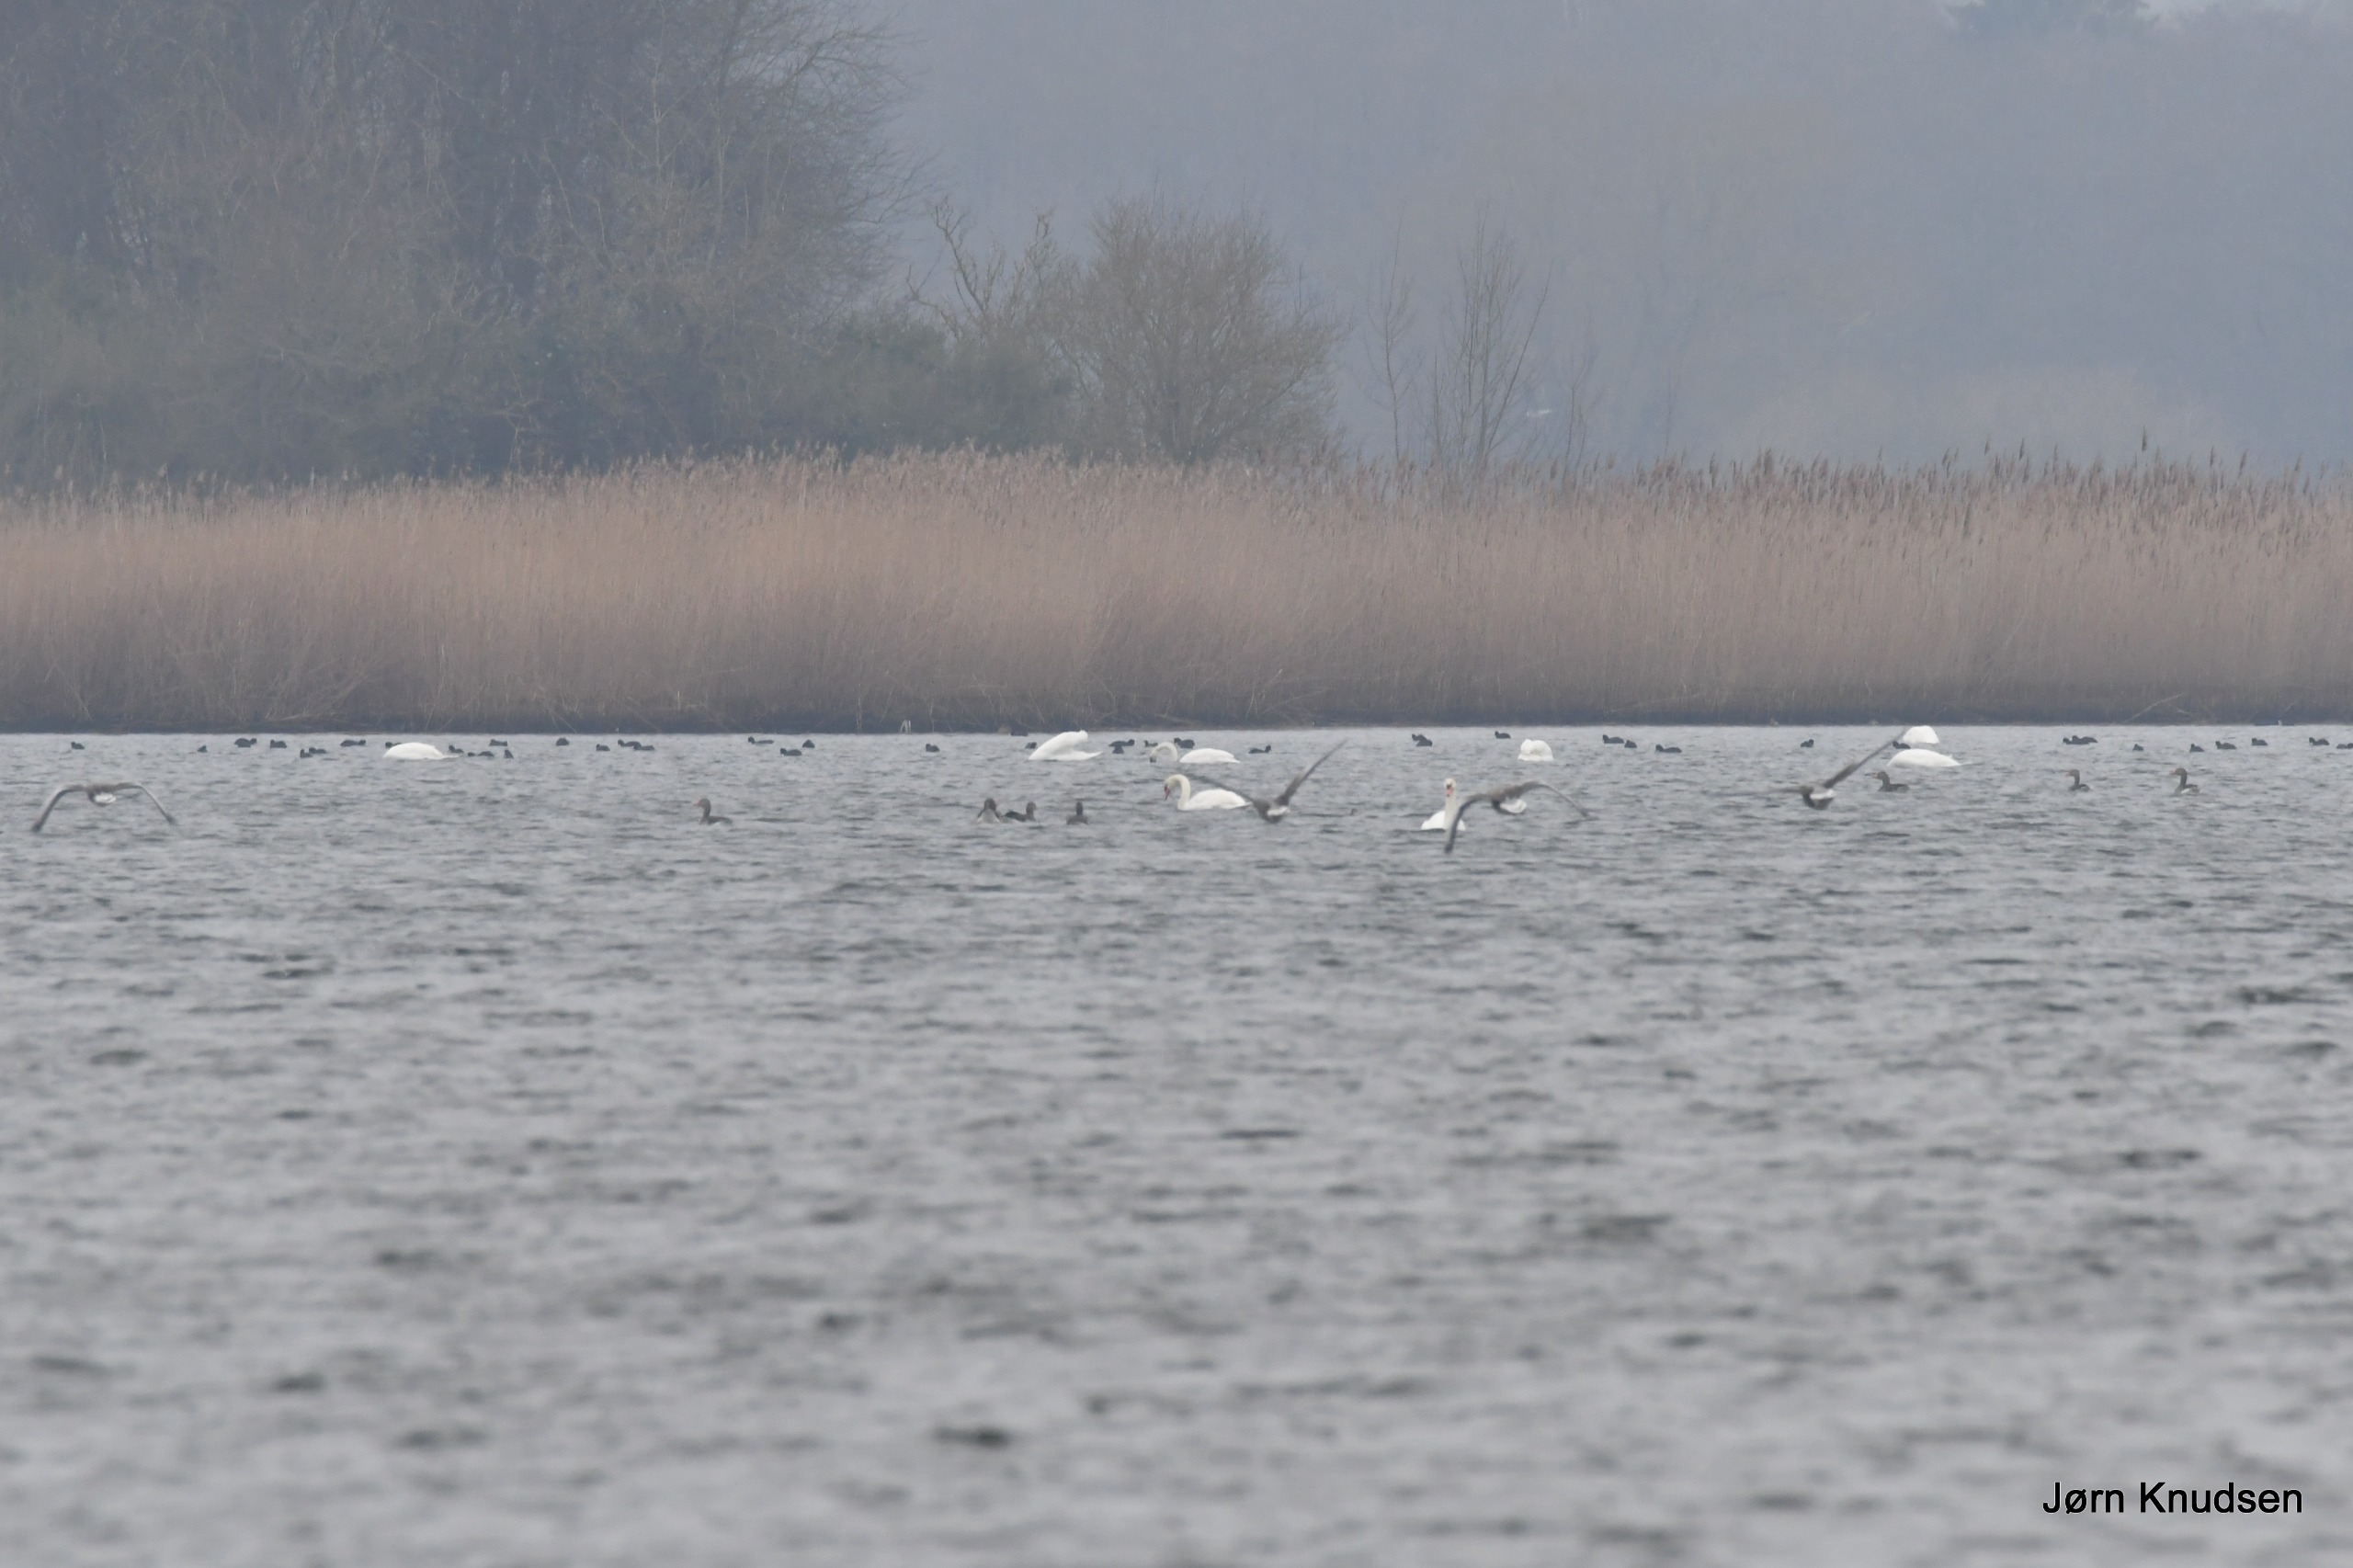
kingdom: Animalia
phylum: Chordata
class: Aves
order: Anseriformes
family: Anatidae
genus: Cygnus
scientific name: Cygnus olor
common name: Knopsvane
